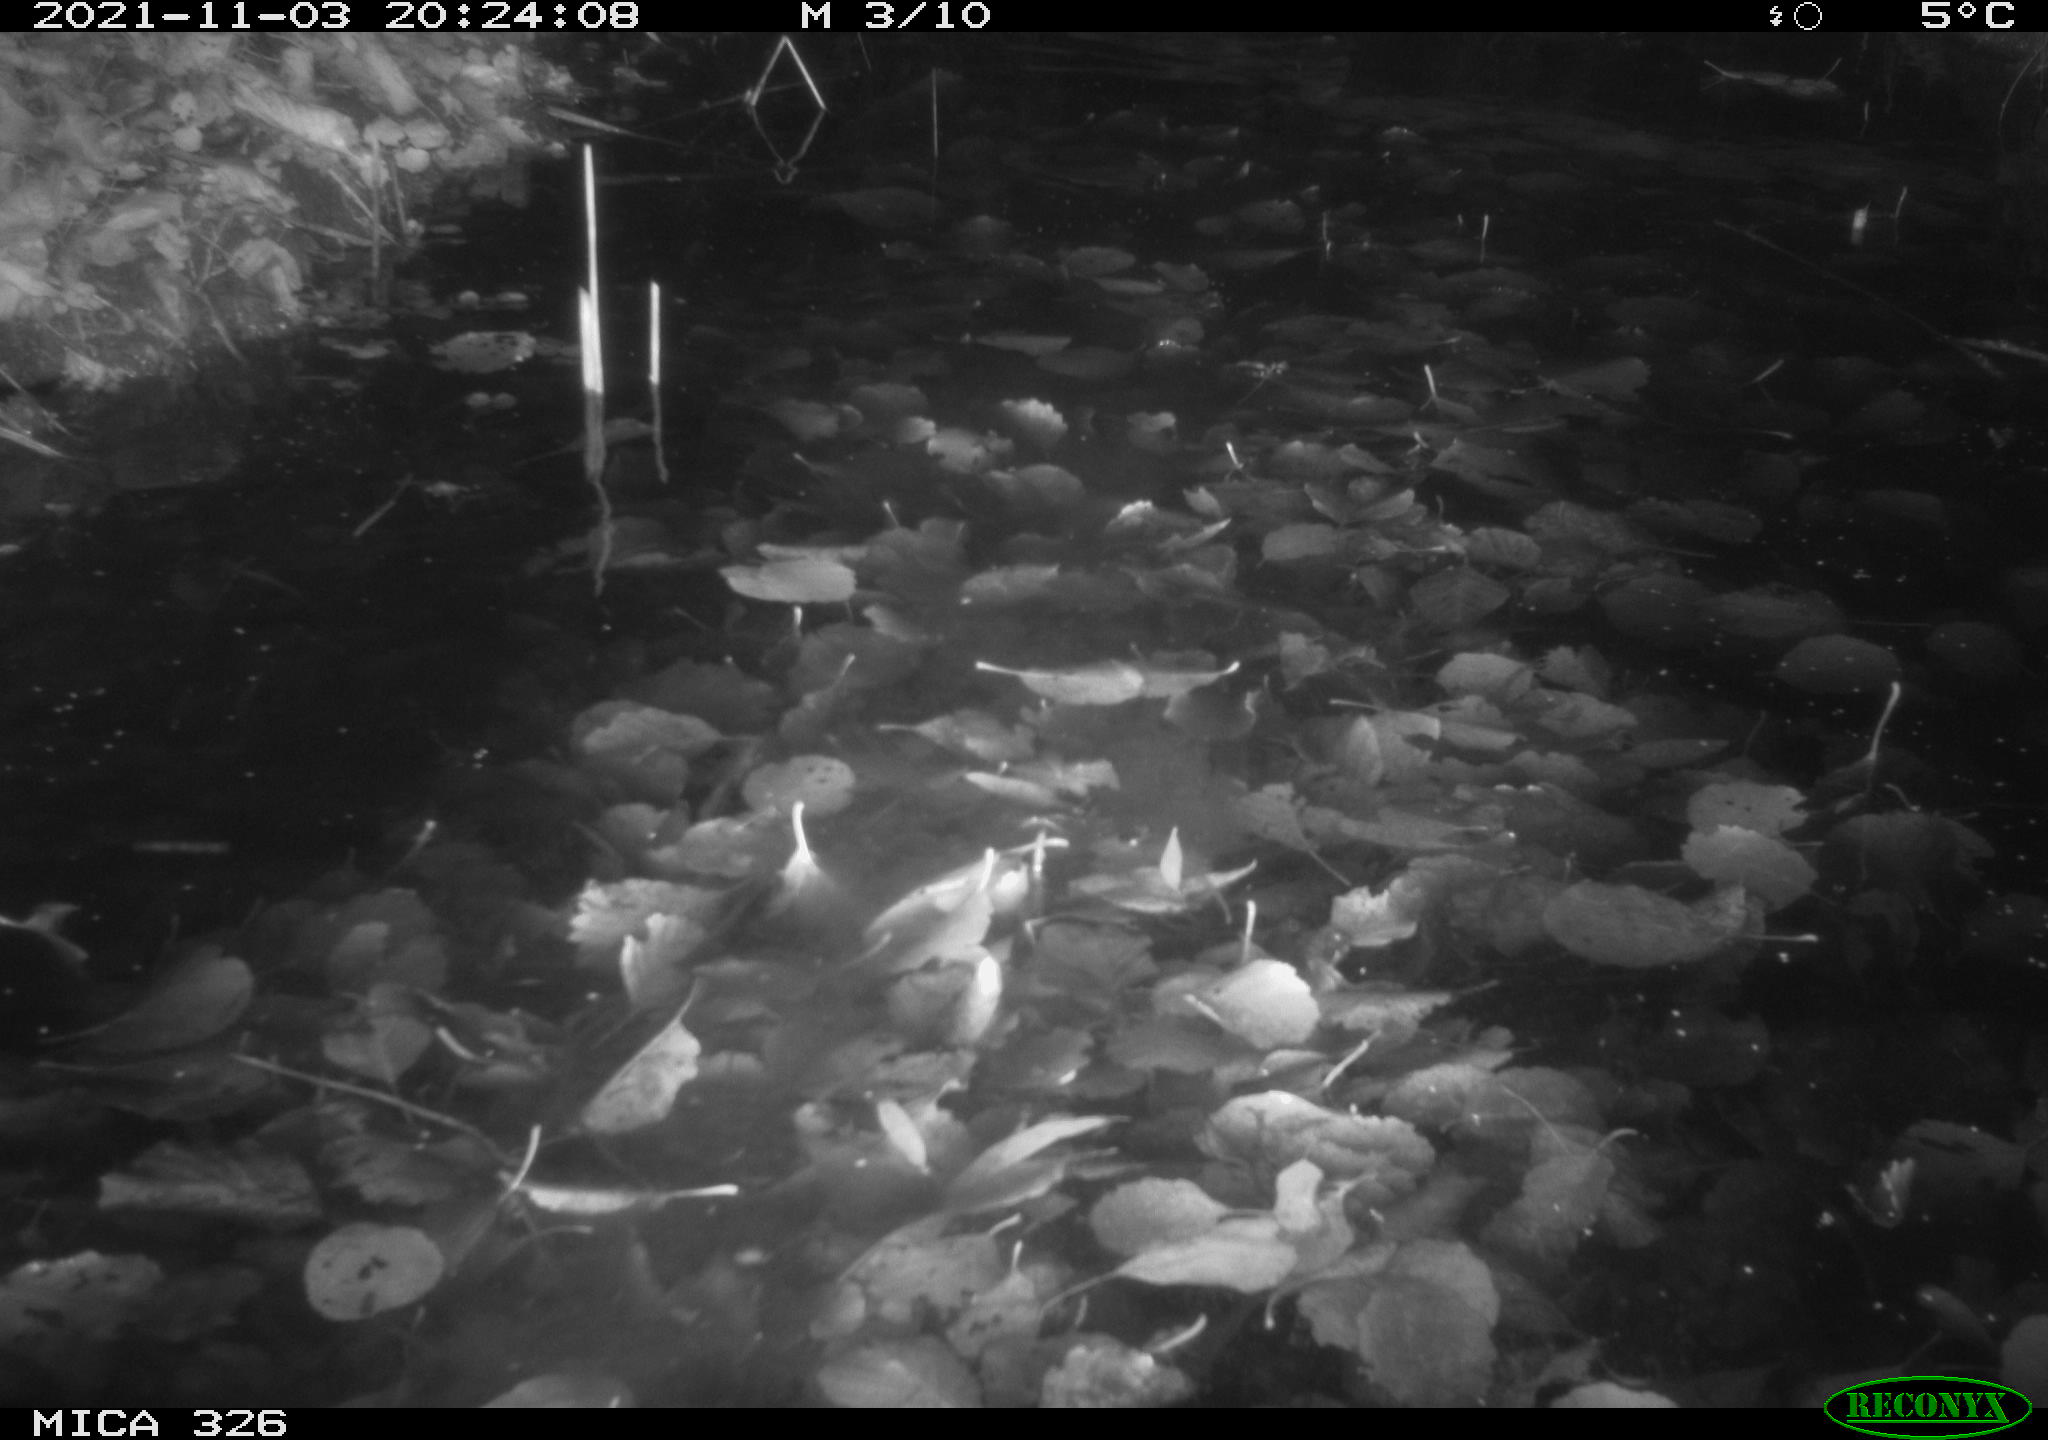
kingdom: Animalia
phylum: Chordata
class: Mammalia
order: Rodentia
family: Myocastoridae
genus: Myocastor
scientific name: Myocastor coypus
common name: Coypu
